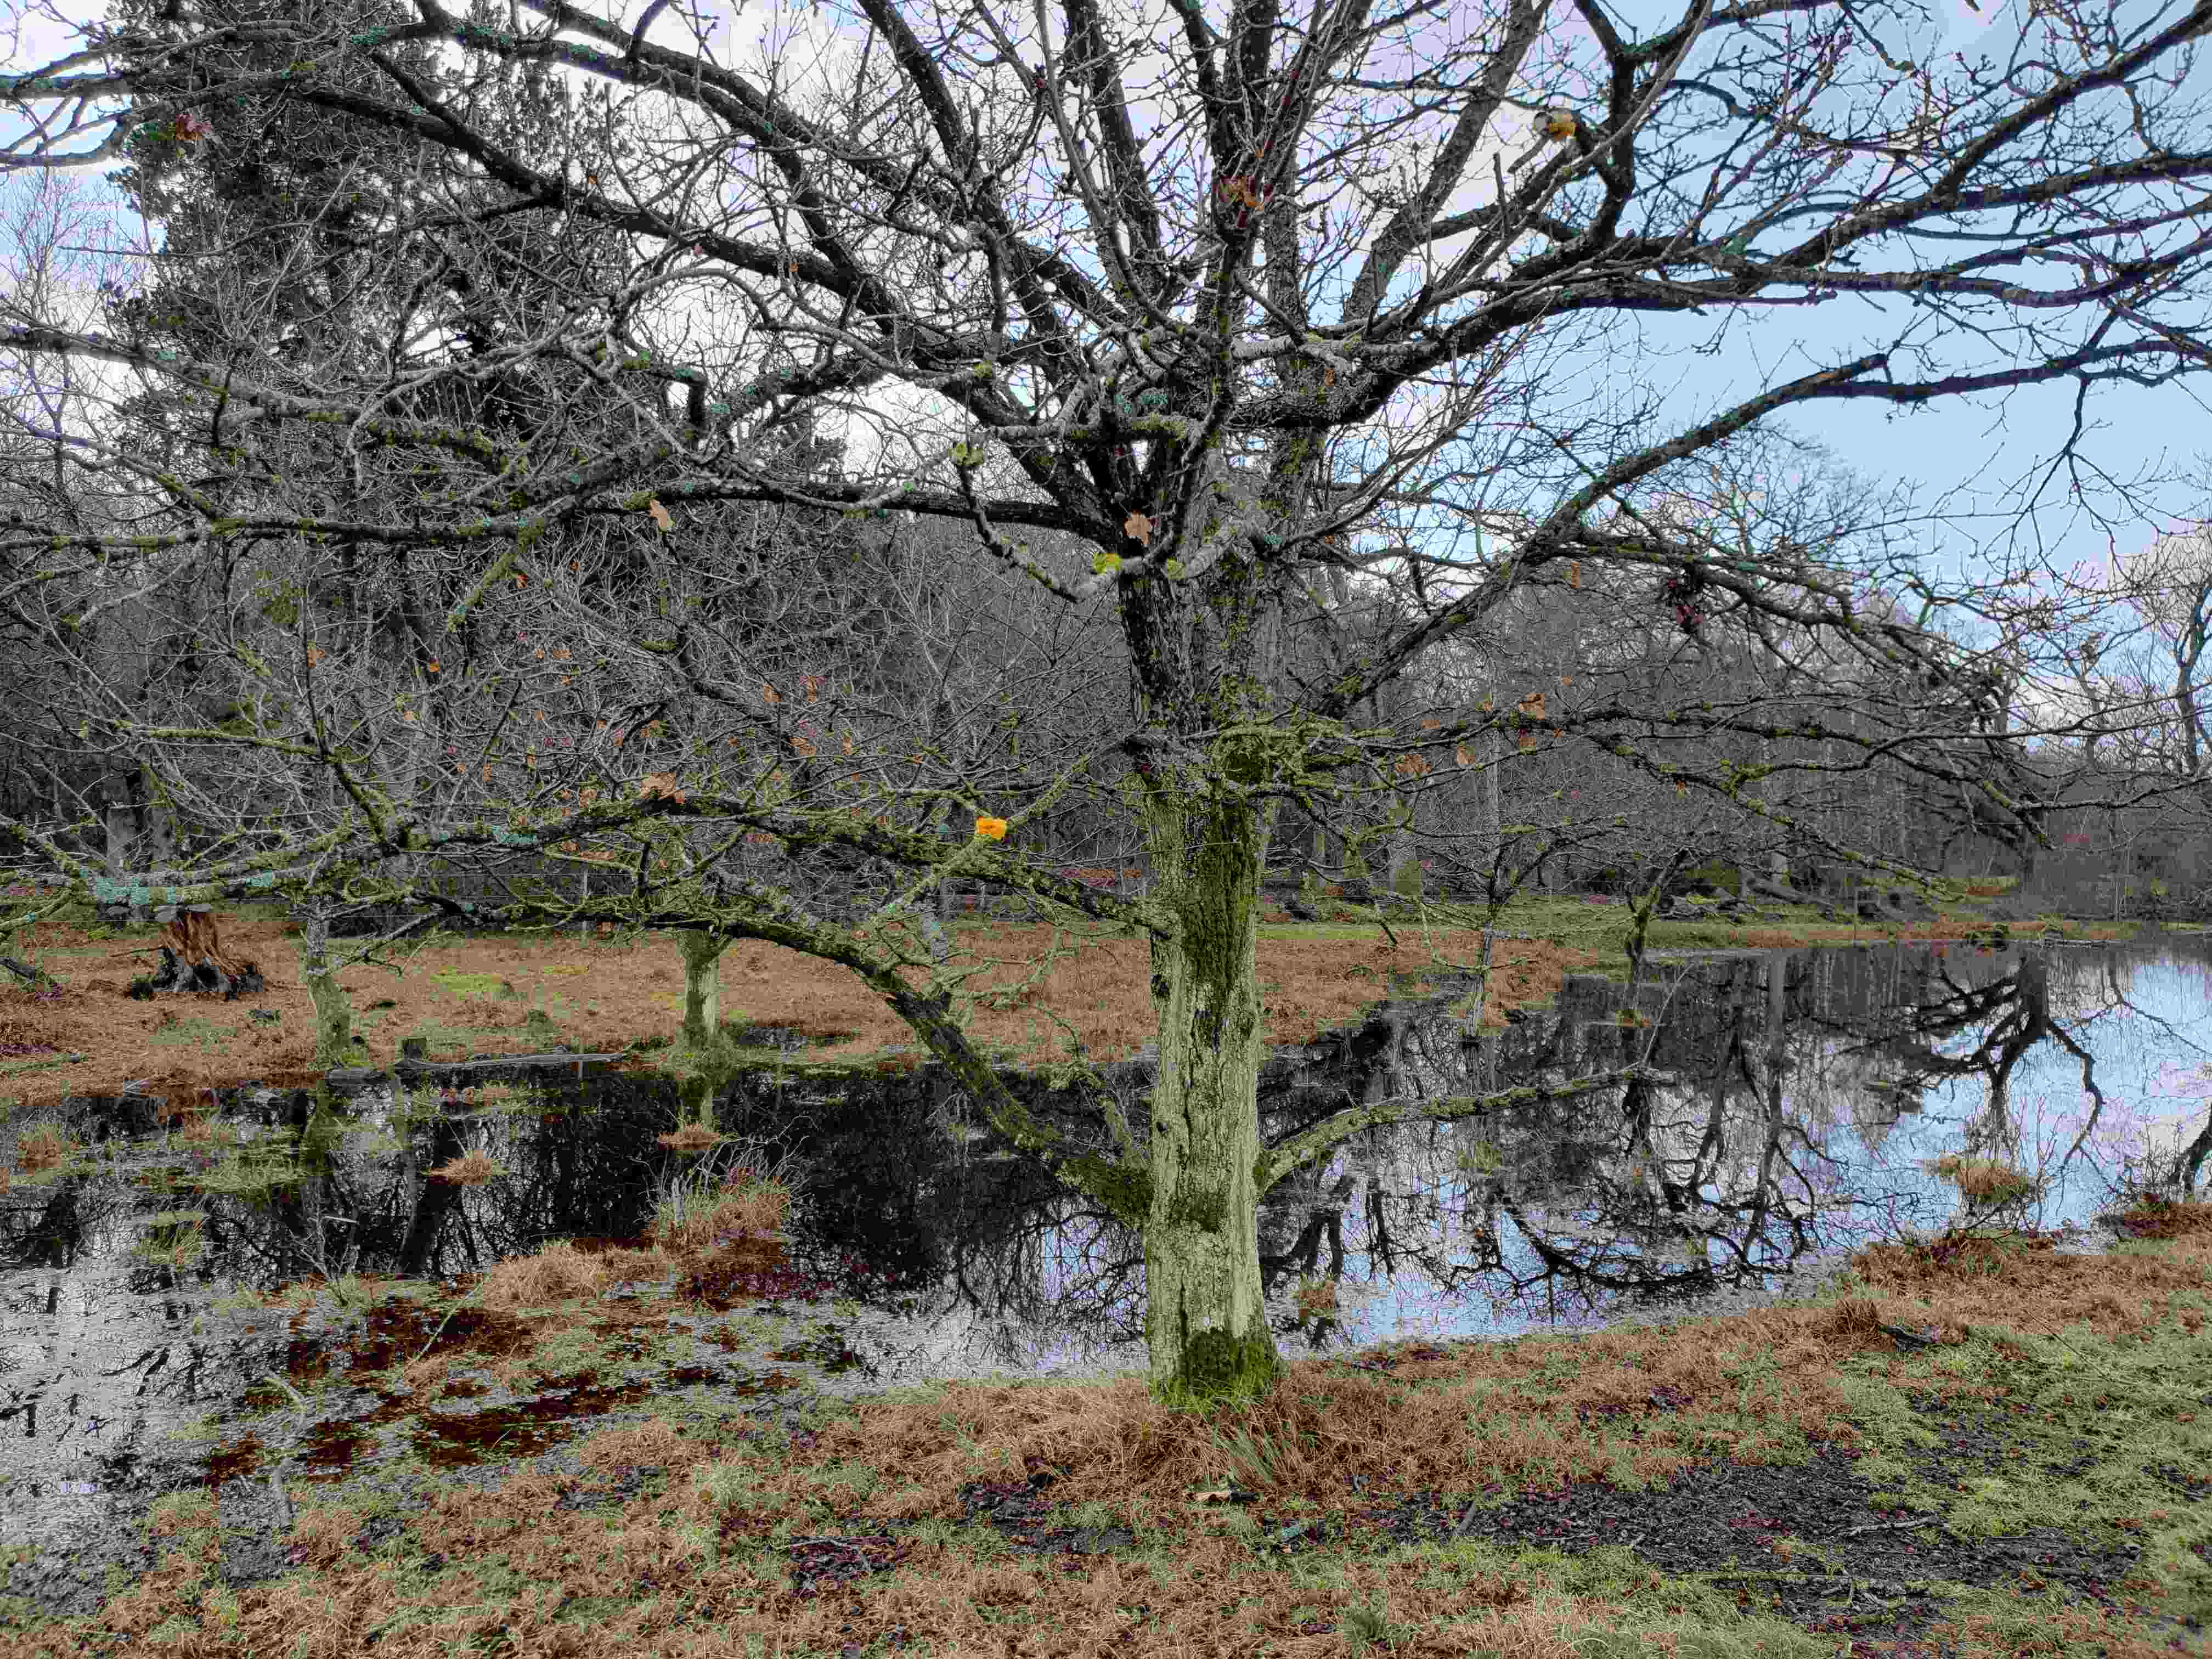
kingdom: Fungi
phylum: Basidiomycota
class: Tremellomycetes
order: Tremellales
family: Tremellaceae
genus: Tremella
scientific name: Tremella mesenterica
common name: gul bævresvamp
